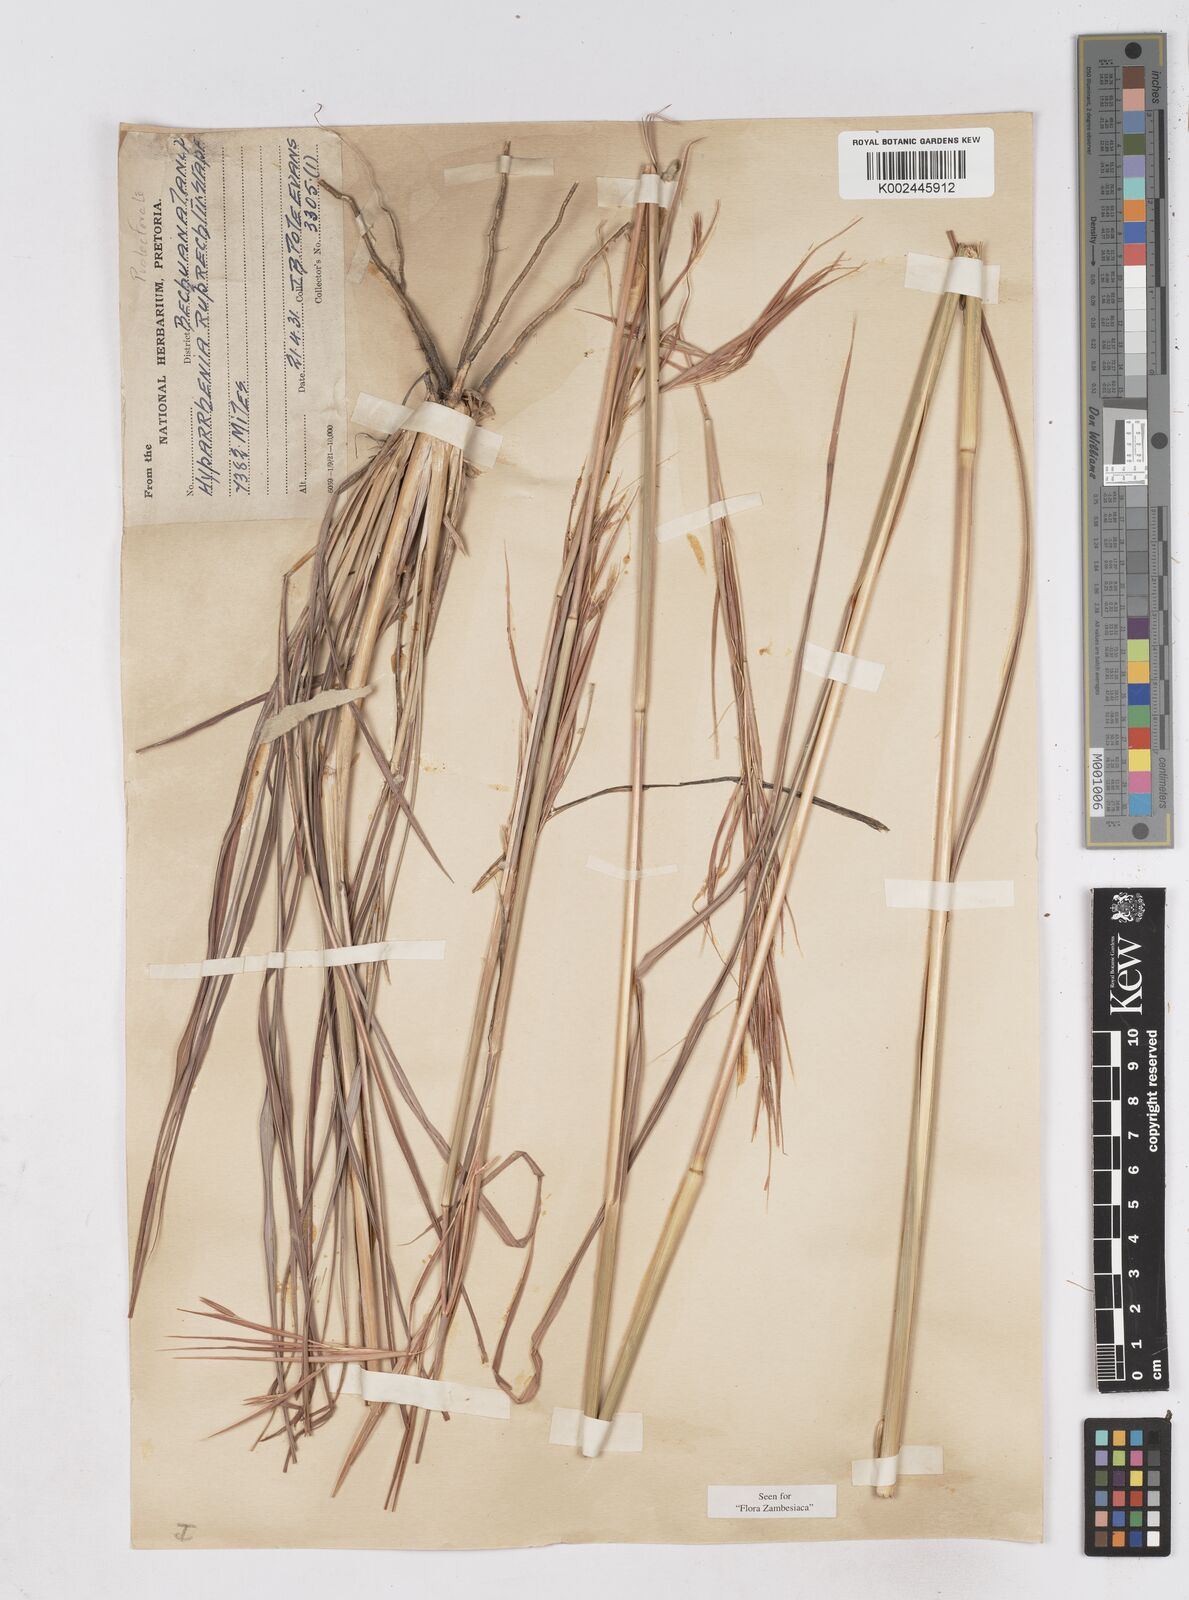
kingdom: Plantae
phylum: Tracheophyta
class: Liliopsida
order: Poales
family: Poaceae
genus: Hyperthelia
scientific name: Hyperthelia dissoluta
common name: Yellow thatching grass
